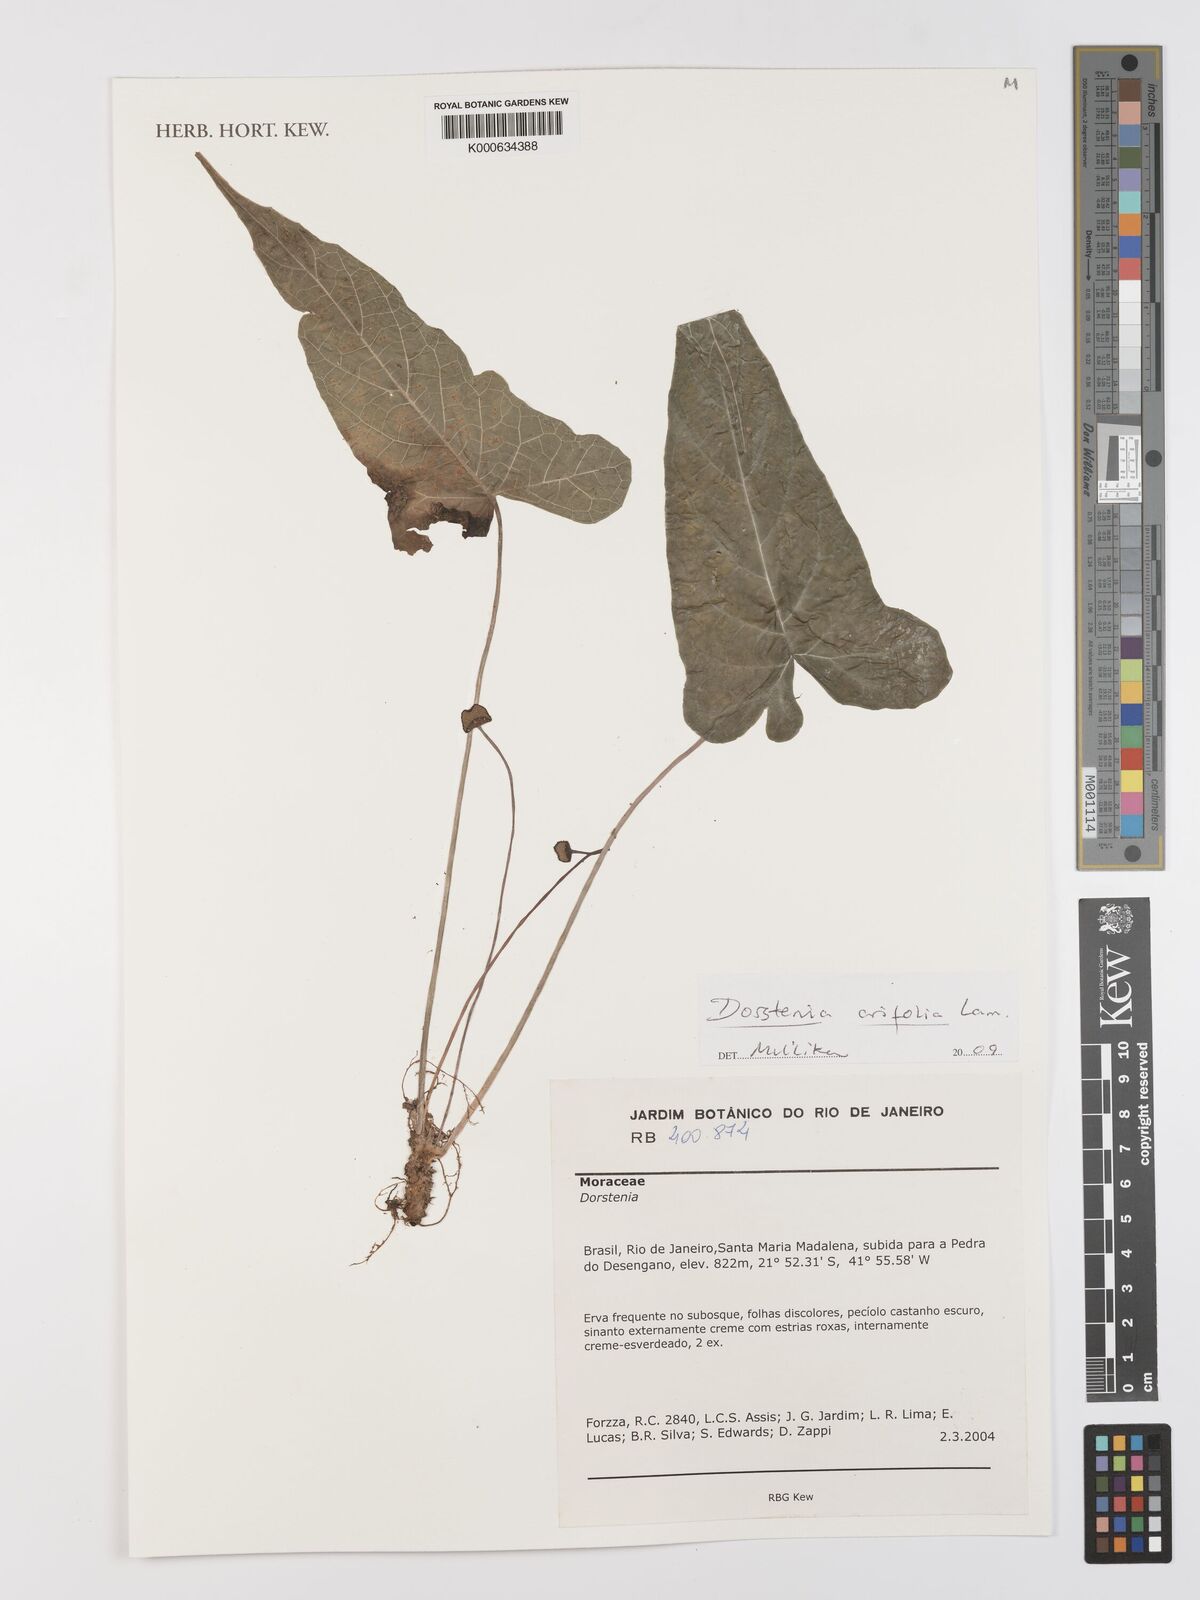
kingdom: Plantae
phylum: Tracheophyta
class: Magnoliopsida
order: Rosales
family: Moraceae
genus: Dorstenia
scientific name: Dorstenia arifolia
